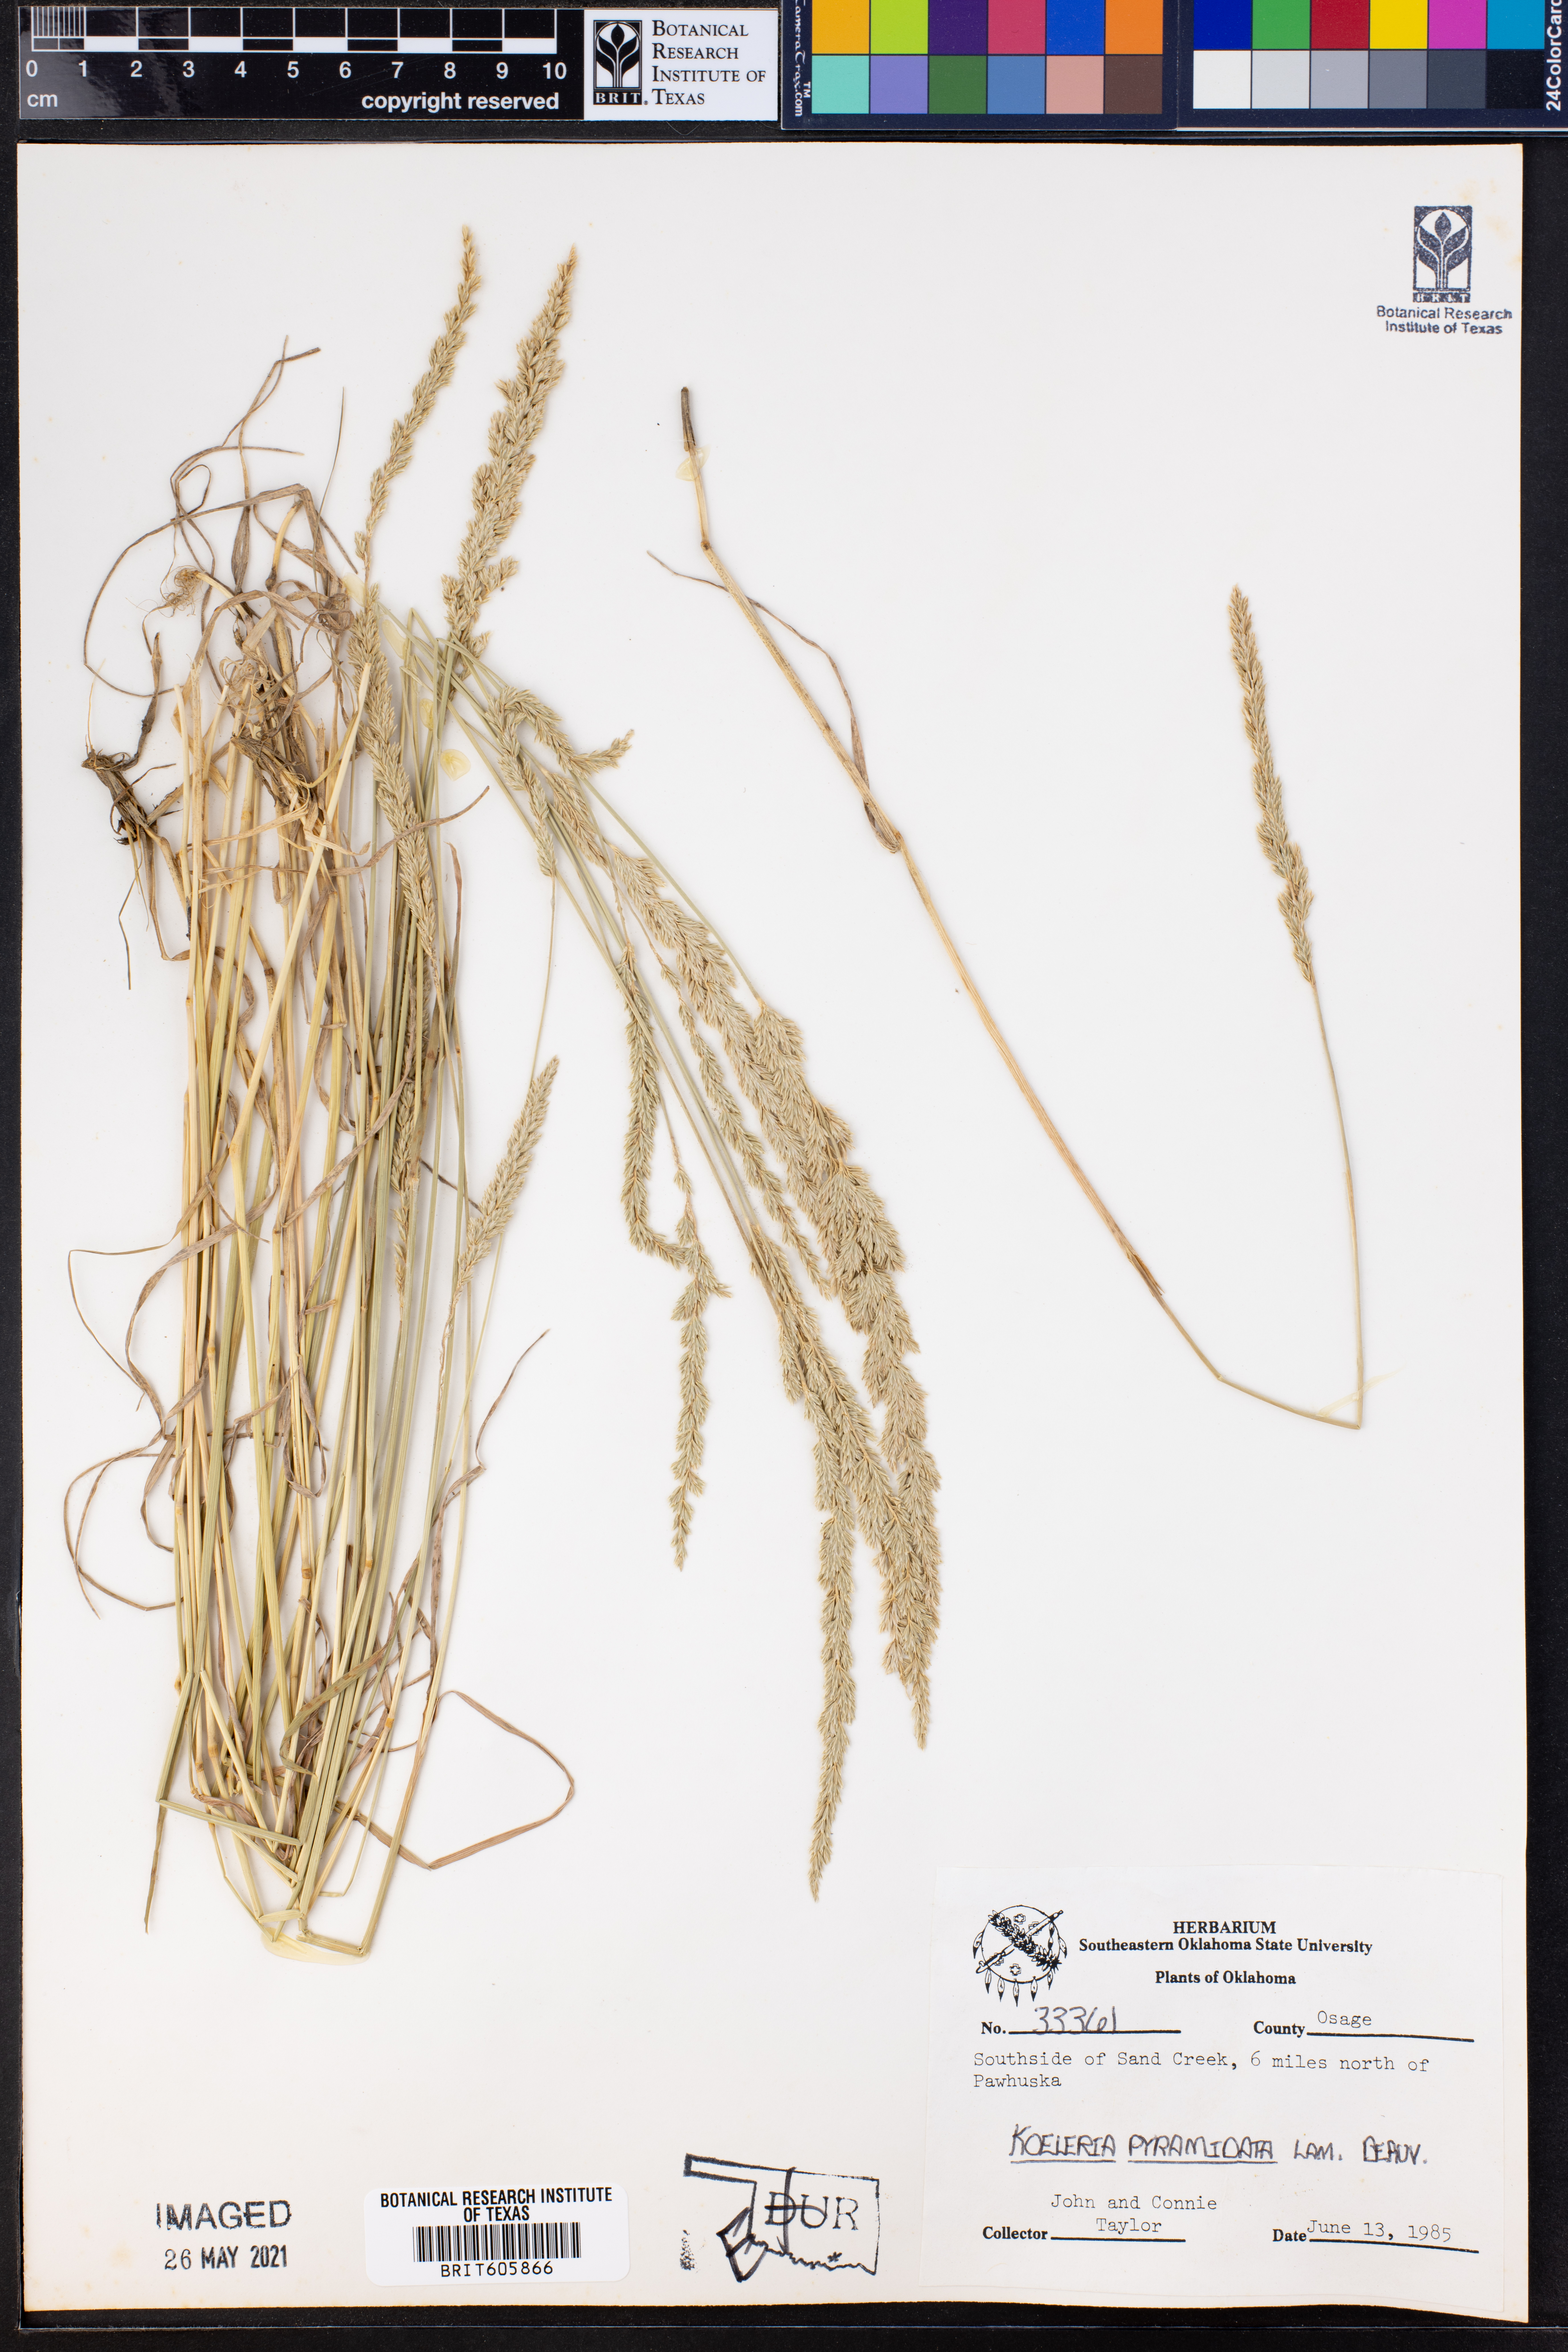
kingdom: Plantae
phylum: Tracheophyta
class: Liliopsida
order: Poales
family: Poaceae
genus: Koeleria
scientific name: Koeleria pyramidata
